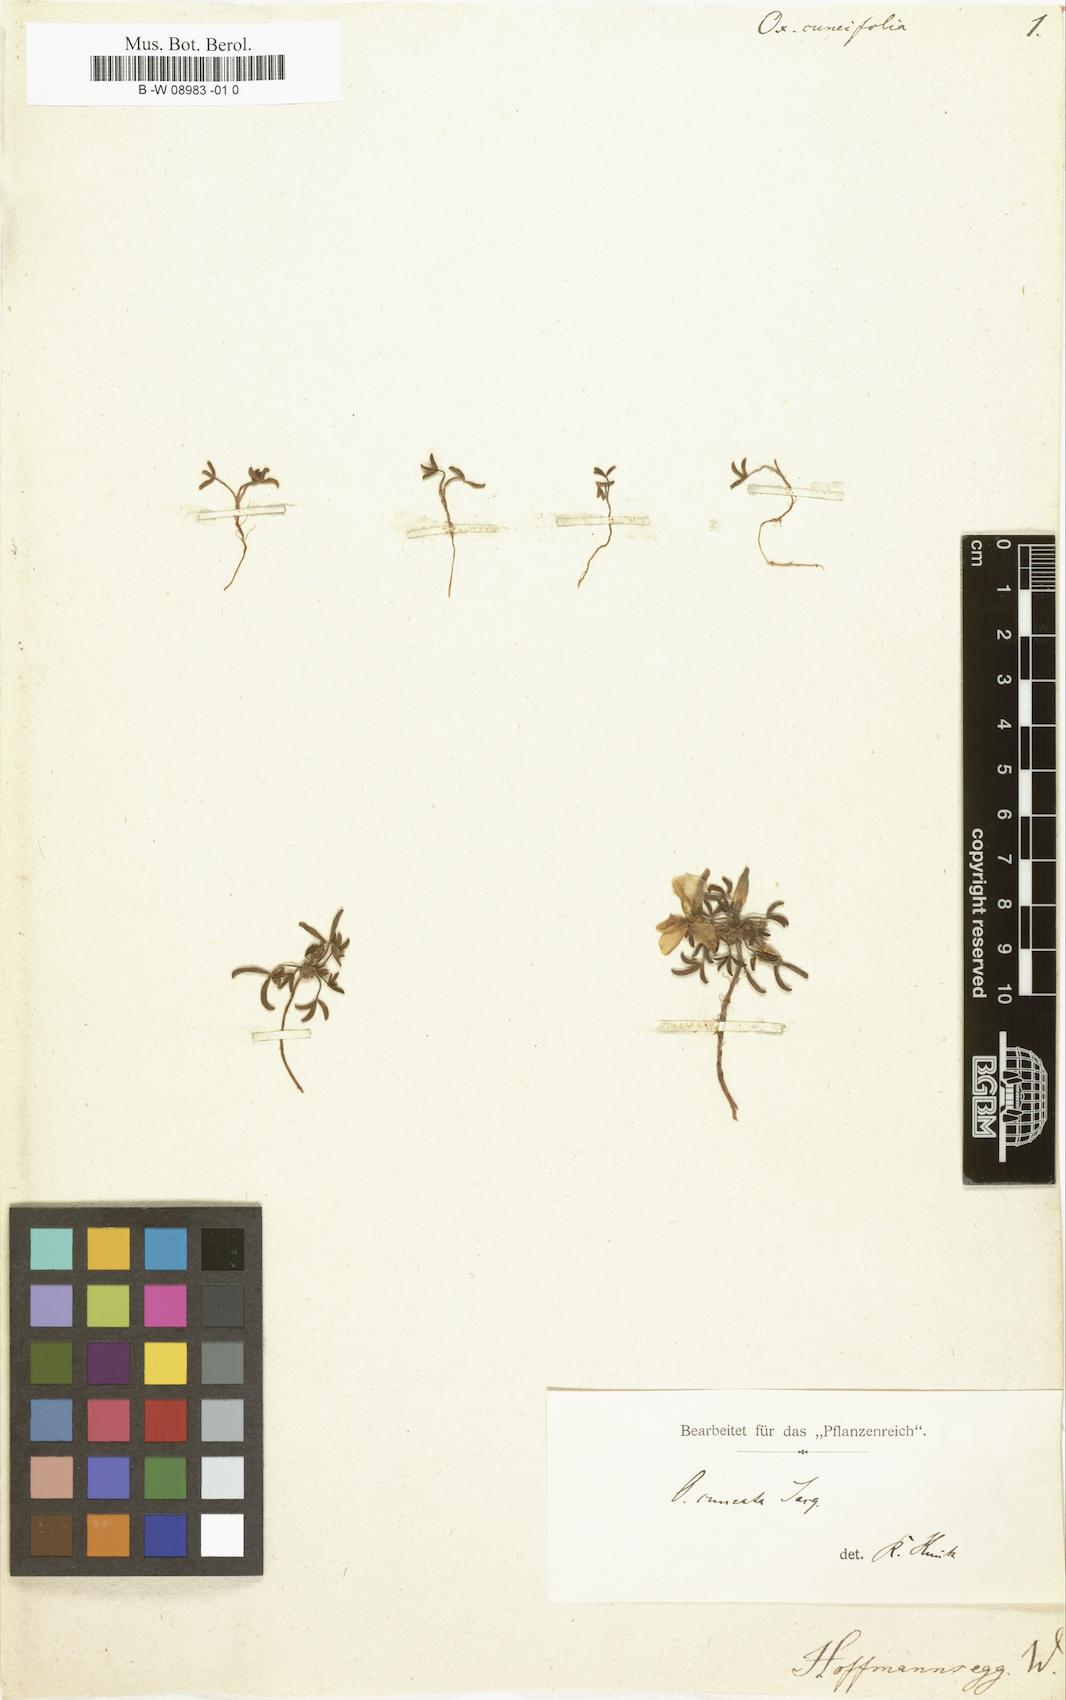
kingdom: Plantae
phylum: Tracheophyta
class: Magnoliopsida
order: Oxalidales
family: Oxalidaceae
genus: Oxalis
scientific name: Oxalis
